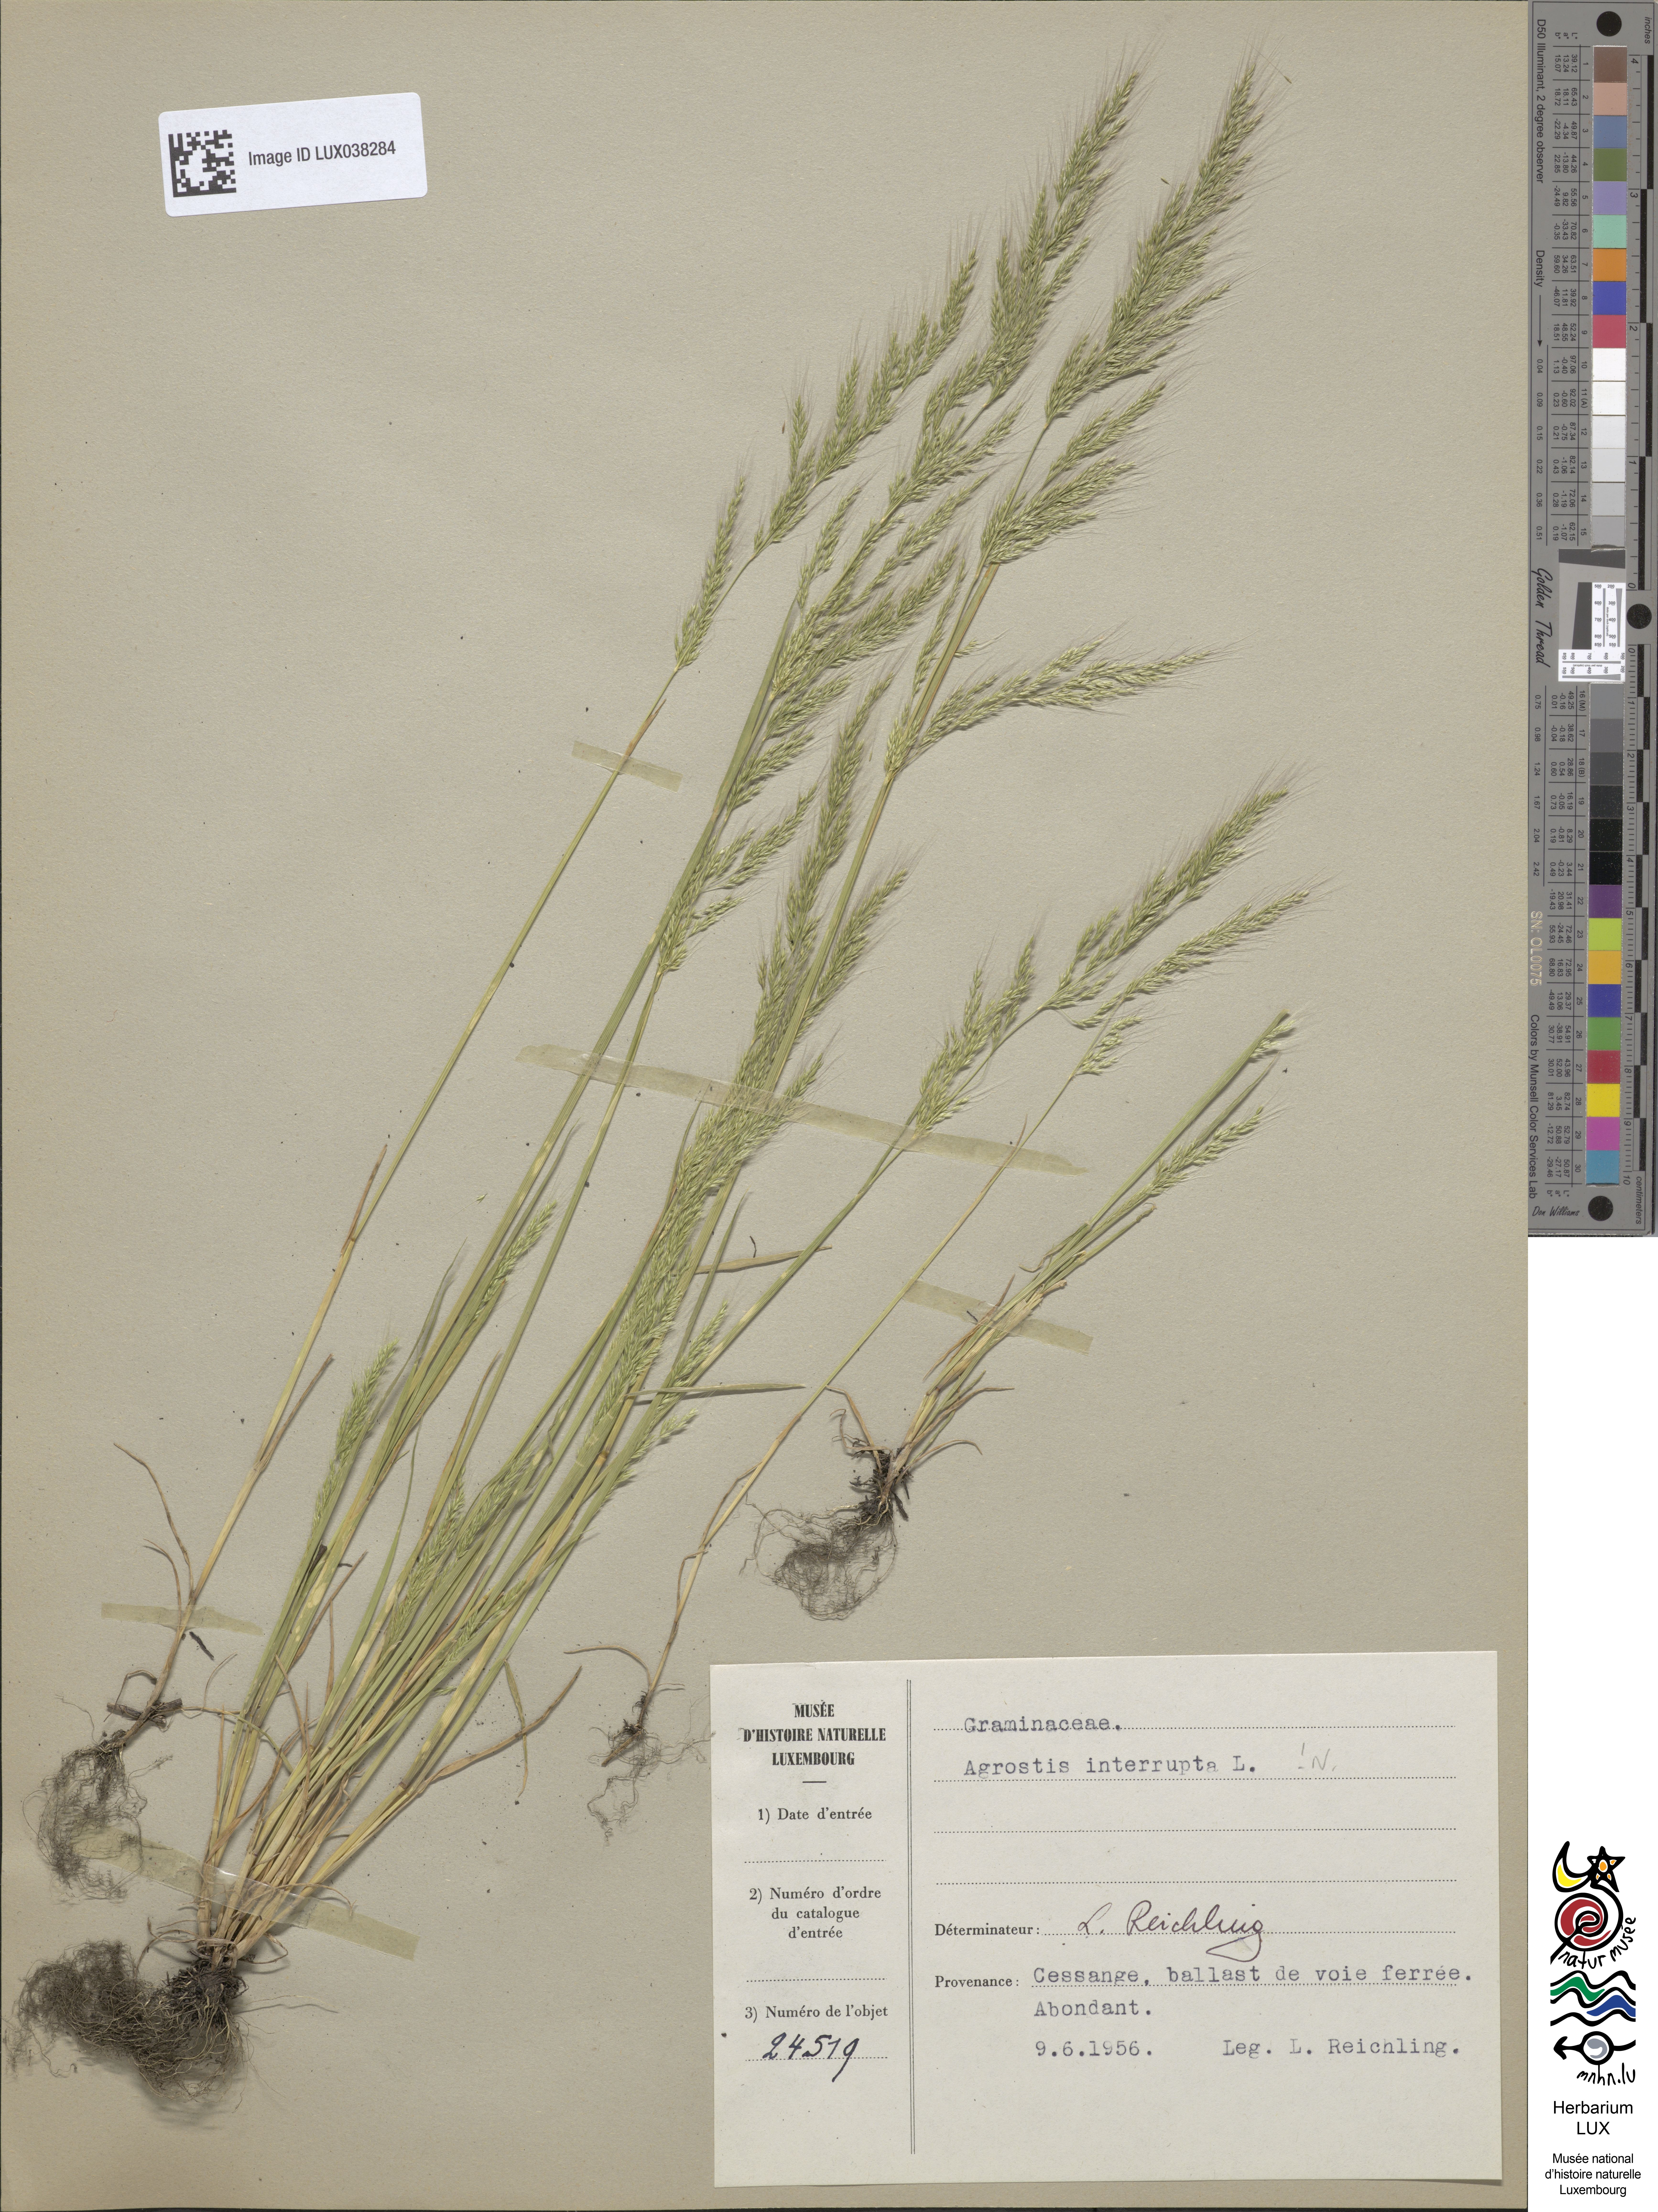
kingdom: Plantae
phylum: Tracheophyta
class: Liliopsida
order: Poales
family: Poaceae
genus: Apera
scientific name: Apera interrupta
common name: Dense silky-bent
